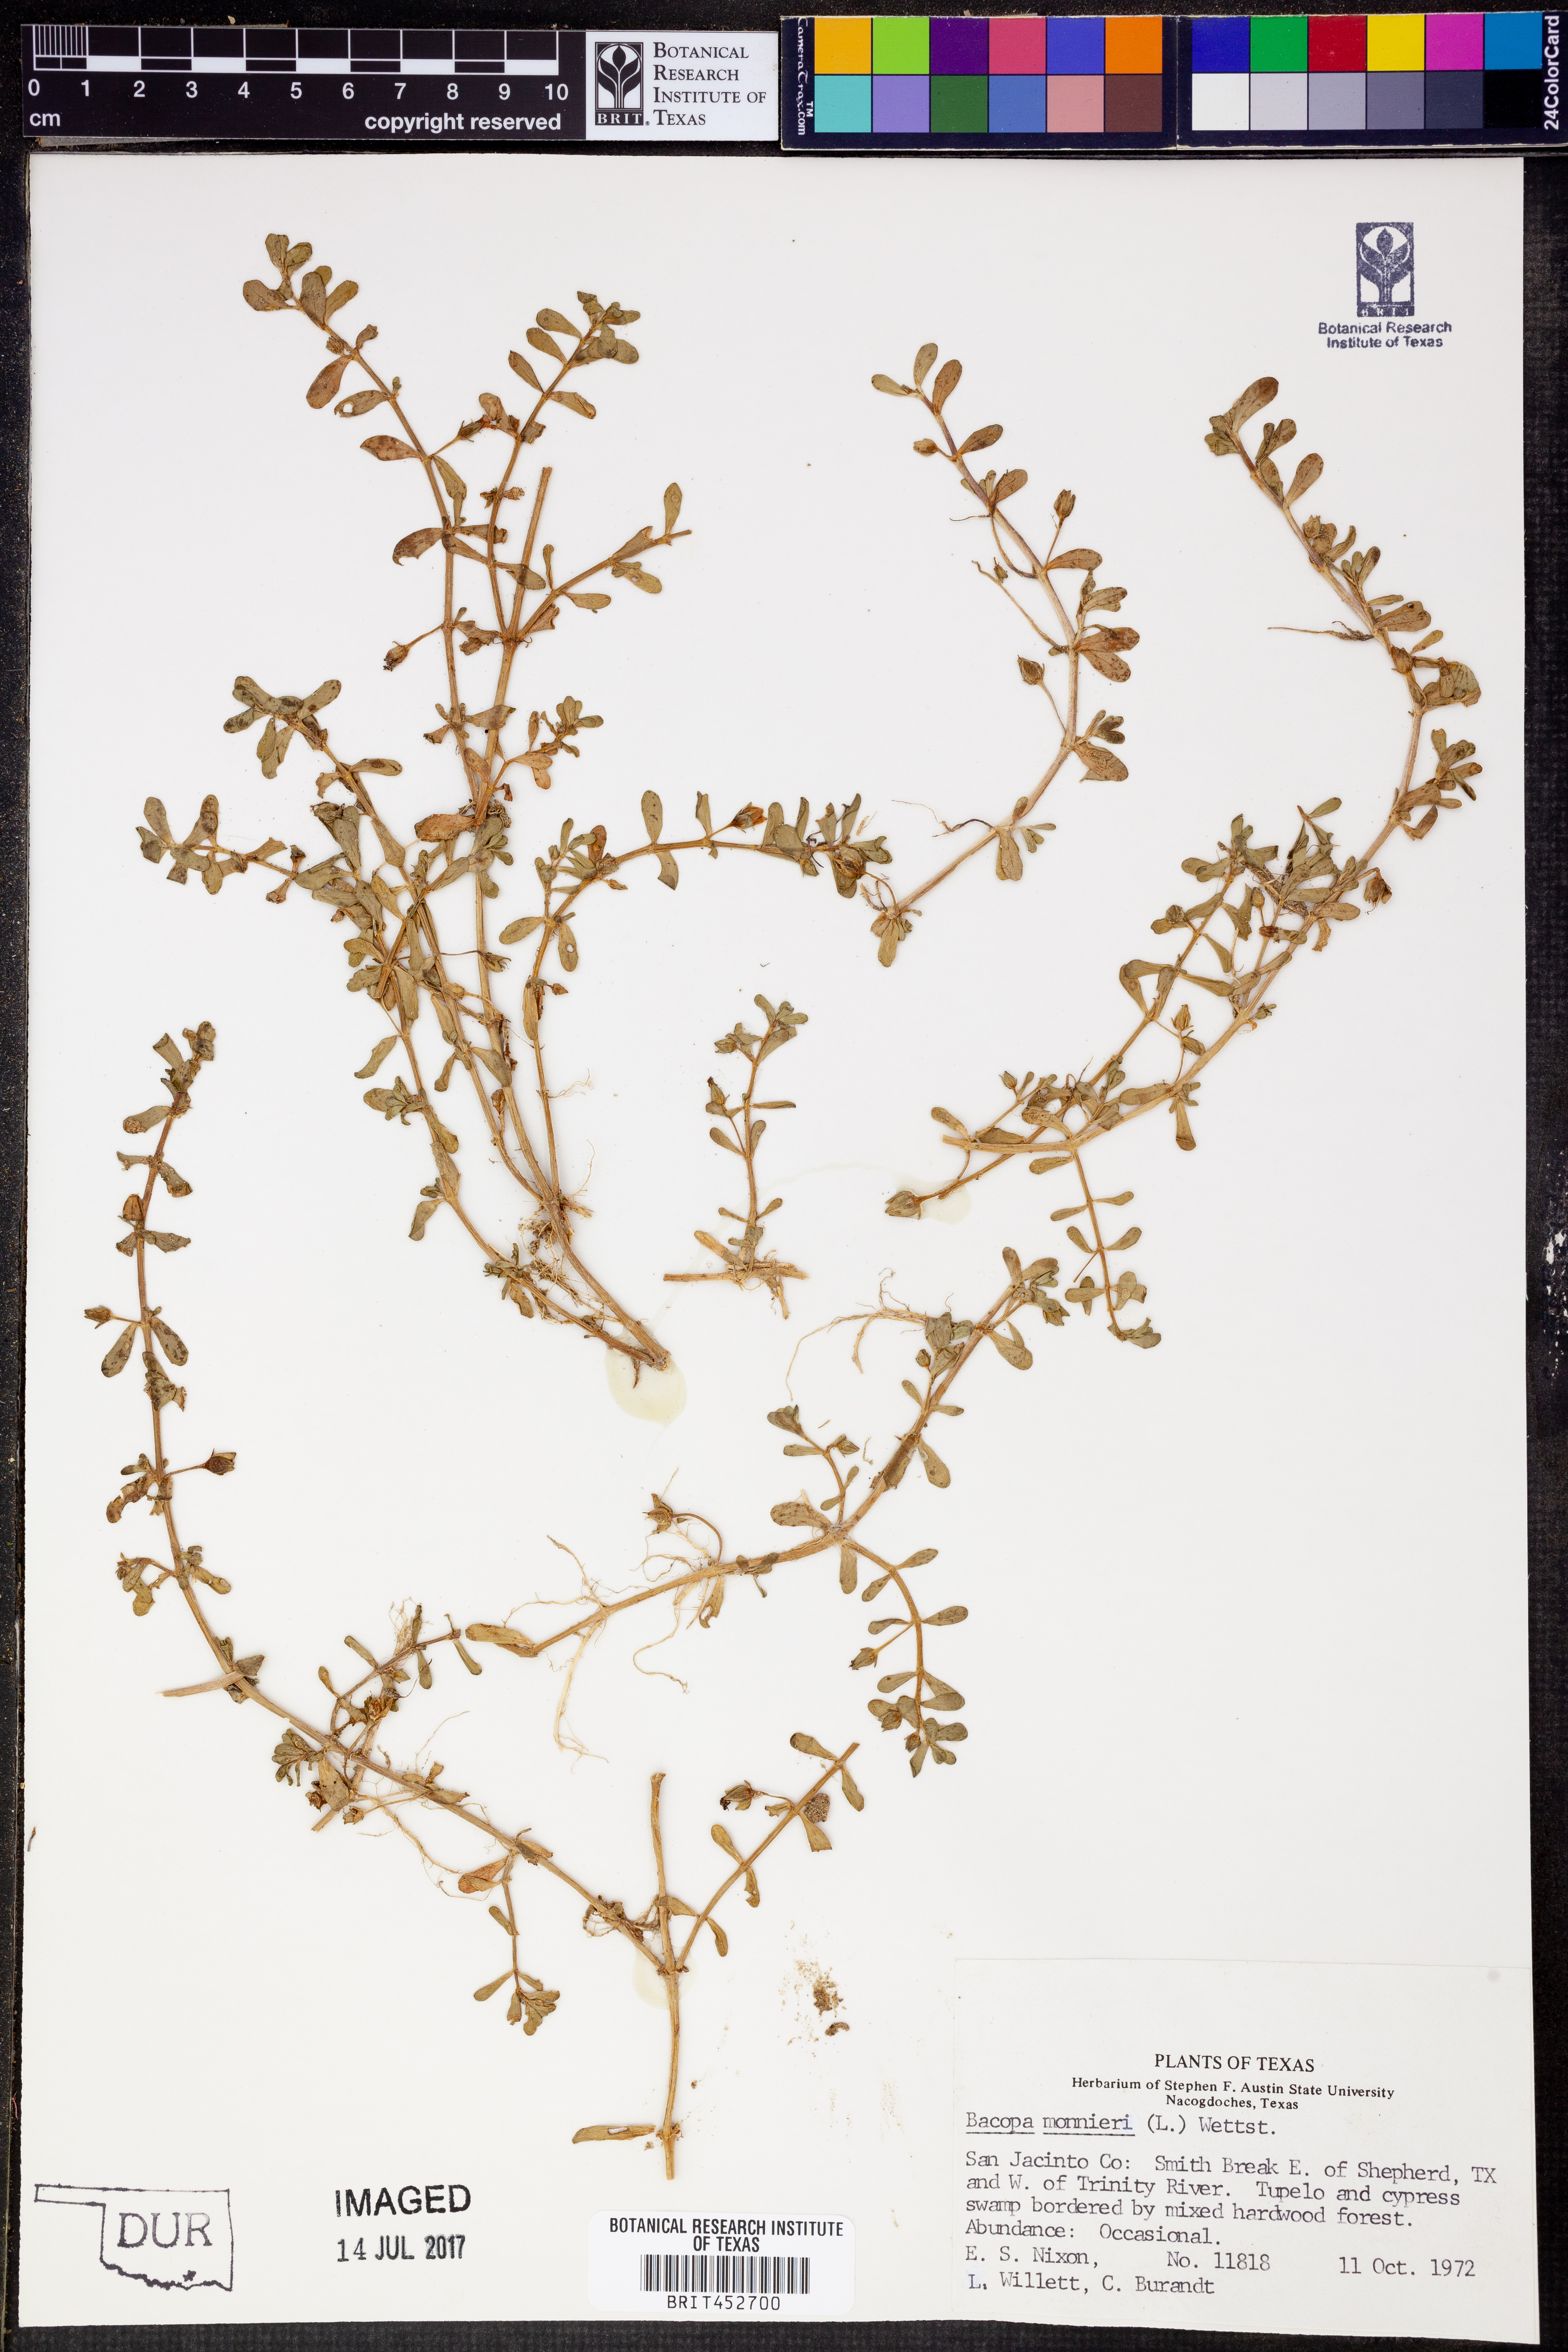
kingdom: Plantae
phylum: Tracheophyta
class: Magnoliopsida
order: Lamiales
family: Plantaginaceae
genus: Bacopa
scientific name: Bacopa monnieri
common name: Indian-pennywort
